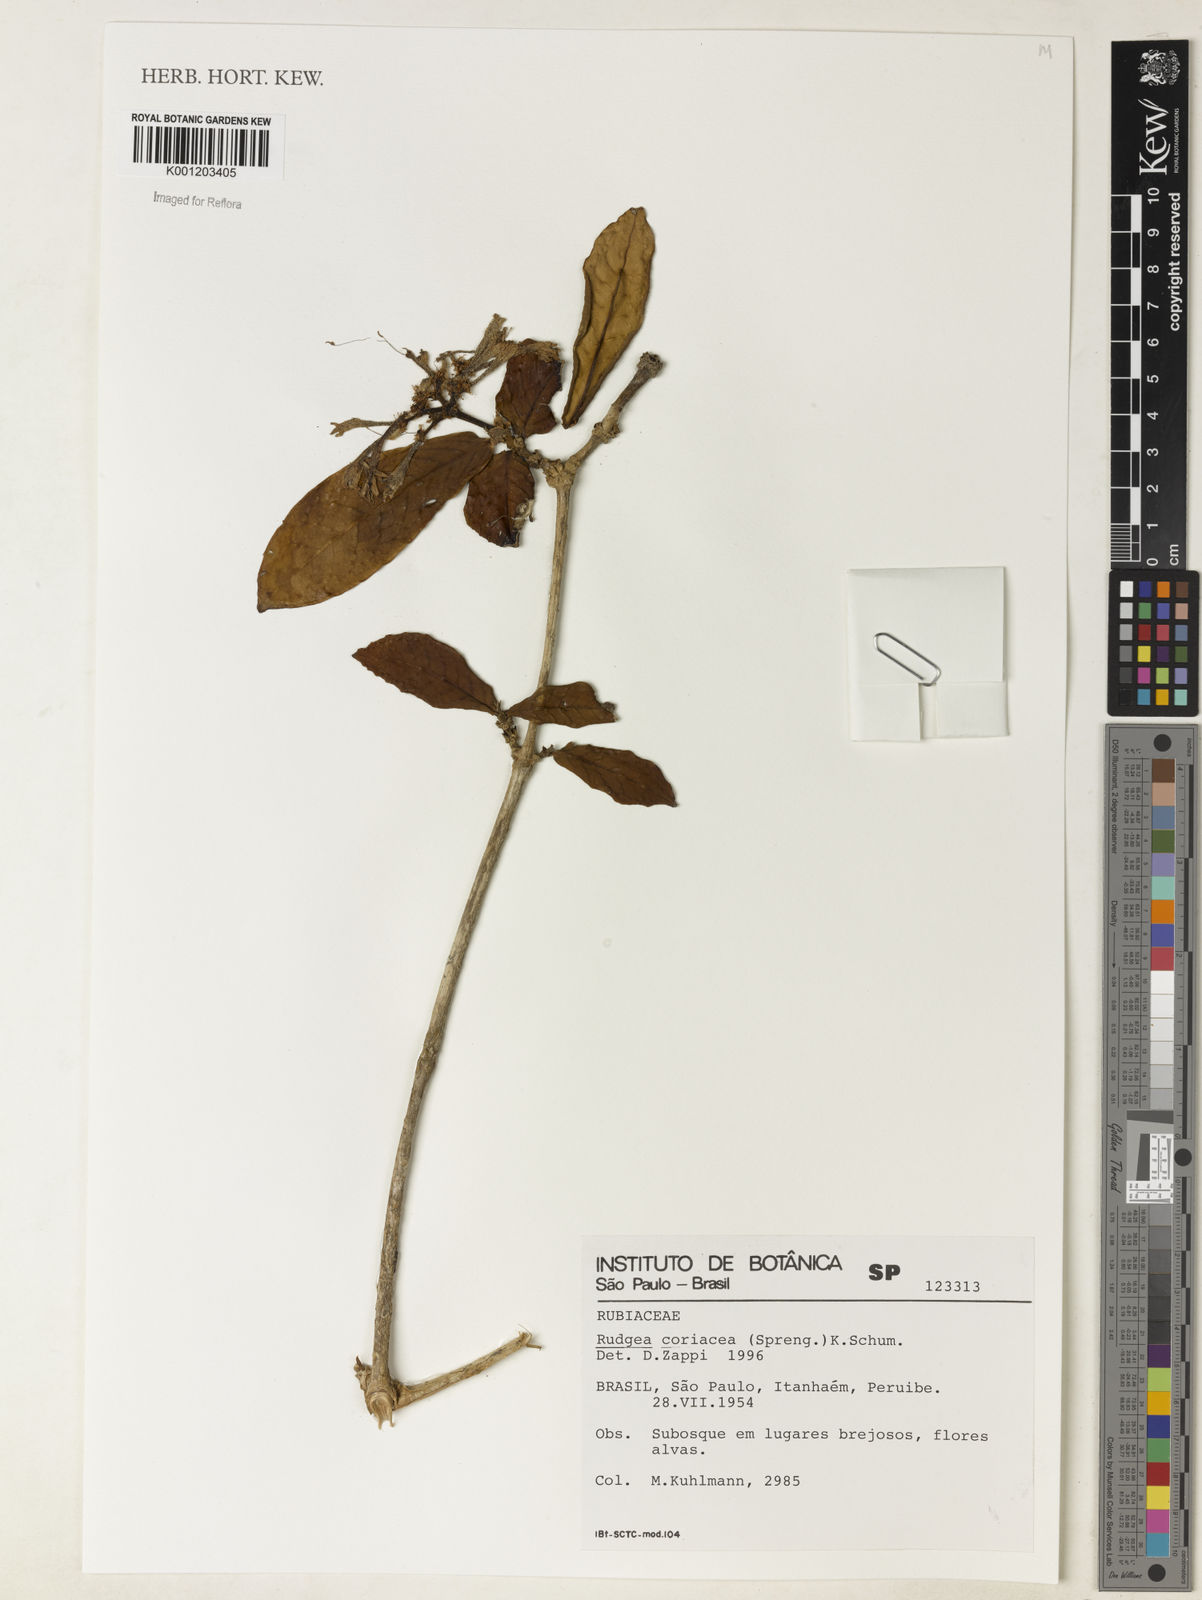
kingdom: Plantae
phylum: Tracheophyta
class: Magnoliopsida
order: Gentianales
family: Rubiaceae
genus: Rudgea
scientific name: Rudgea coriacea
